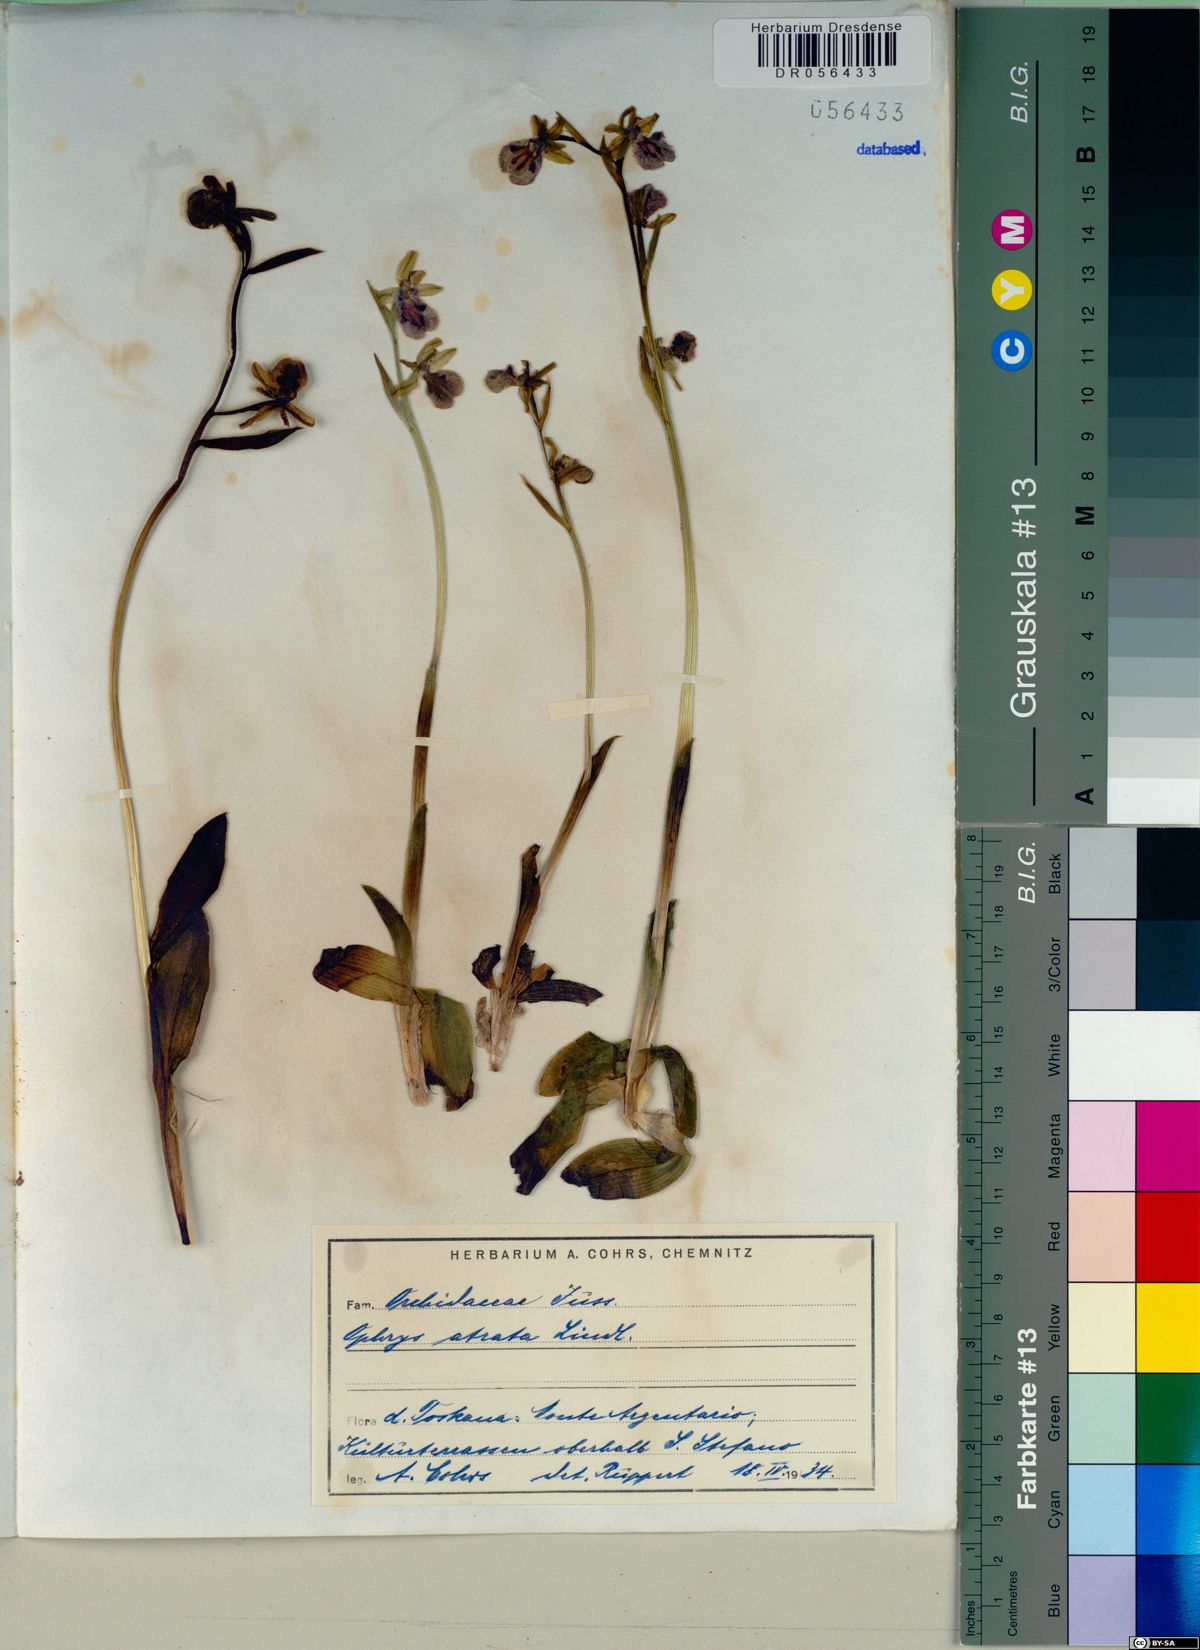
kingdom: Plantae
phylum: Tracheophyta
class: Liliopsida
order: Asparagales
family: Orchidaceae
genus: Ophrys
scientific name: Ophrys sphegodes
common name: Early spider-orchid
